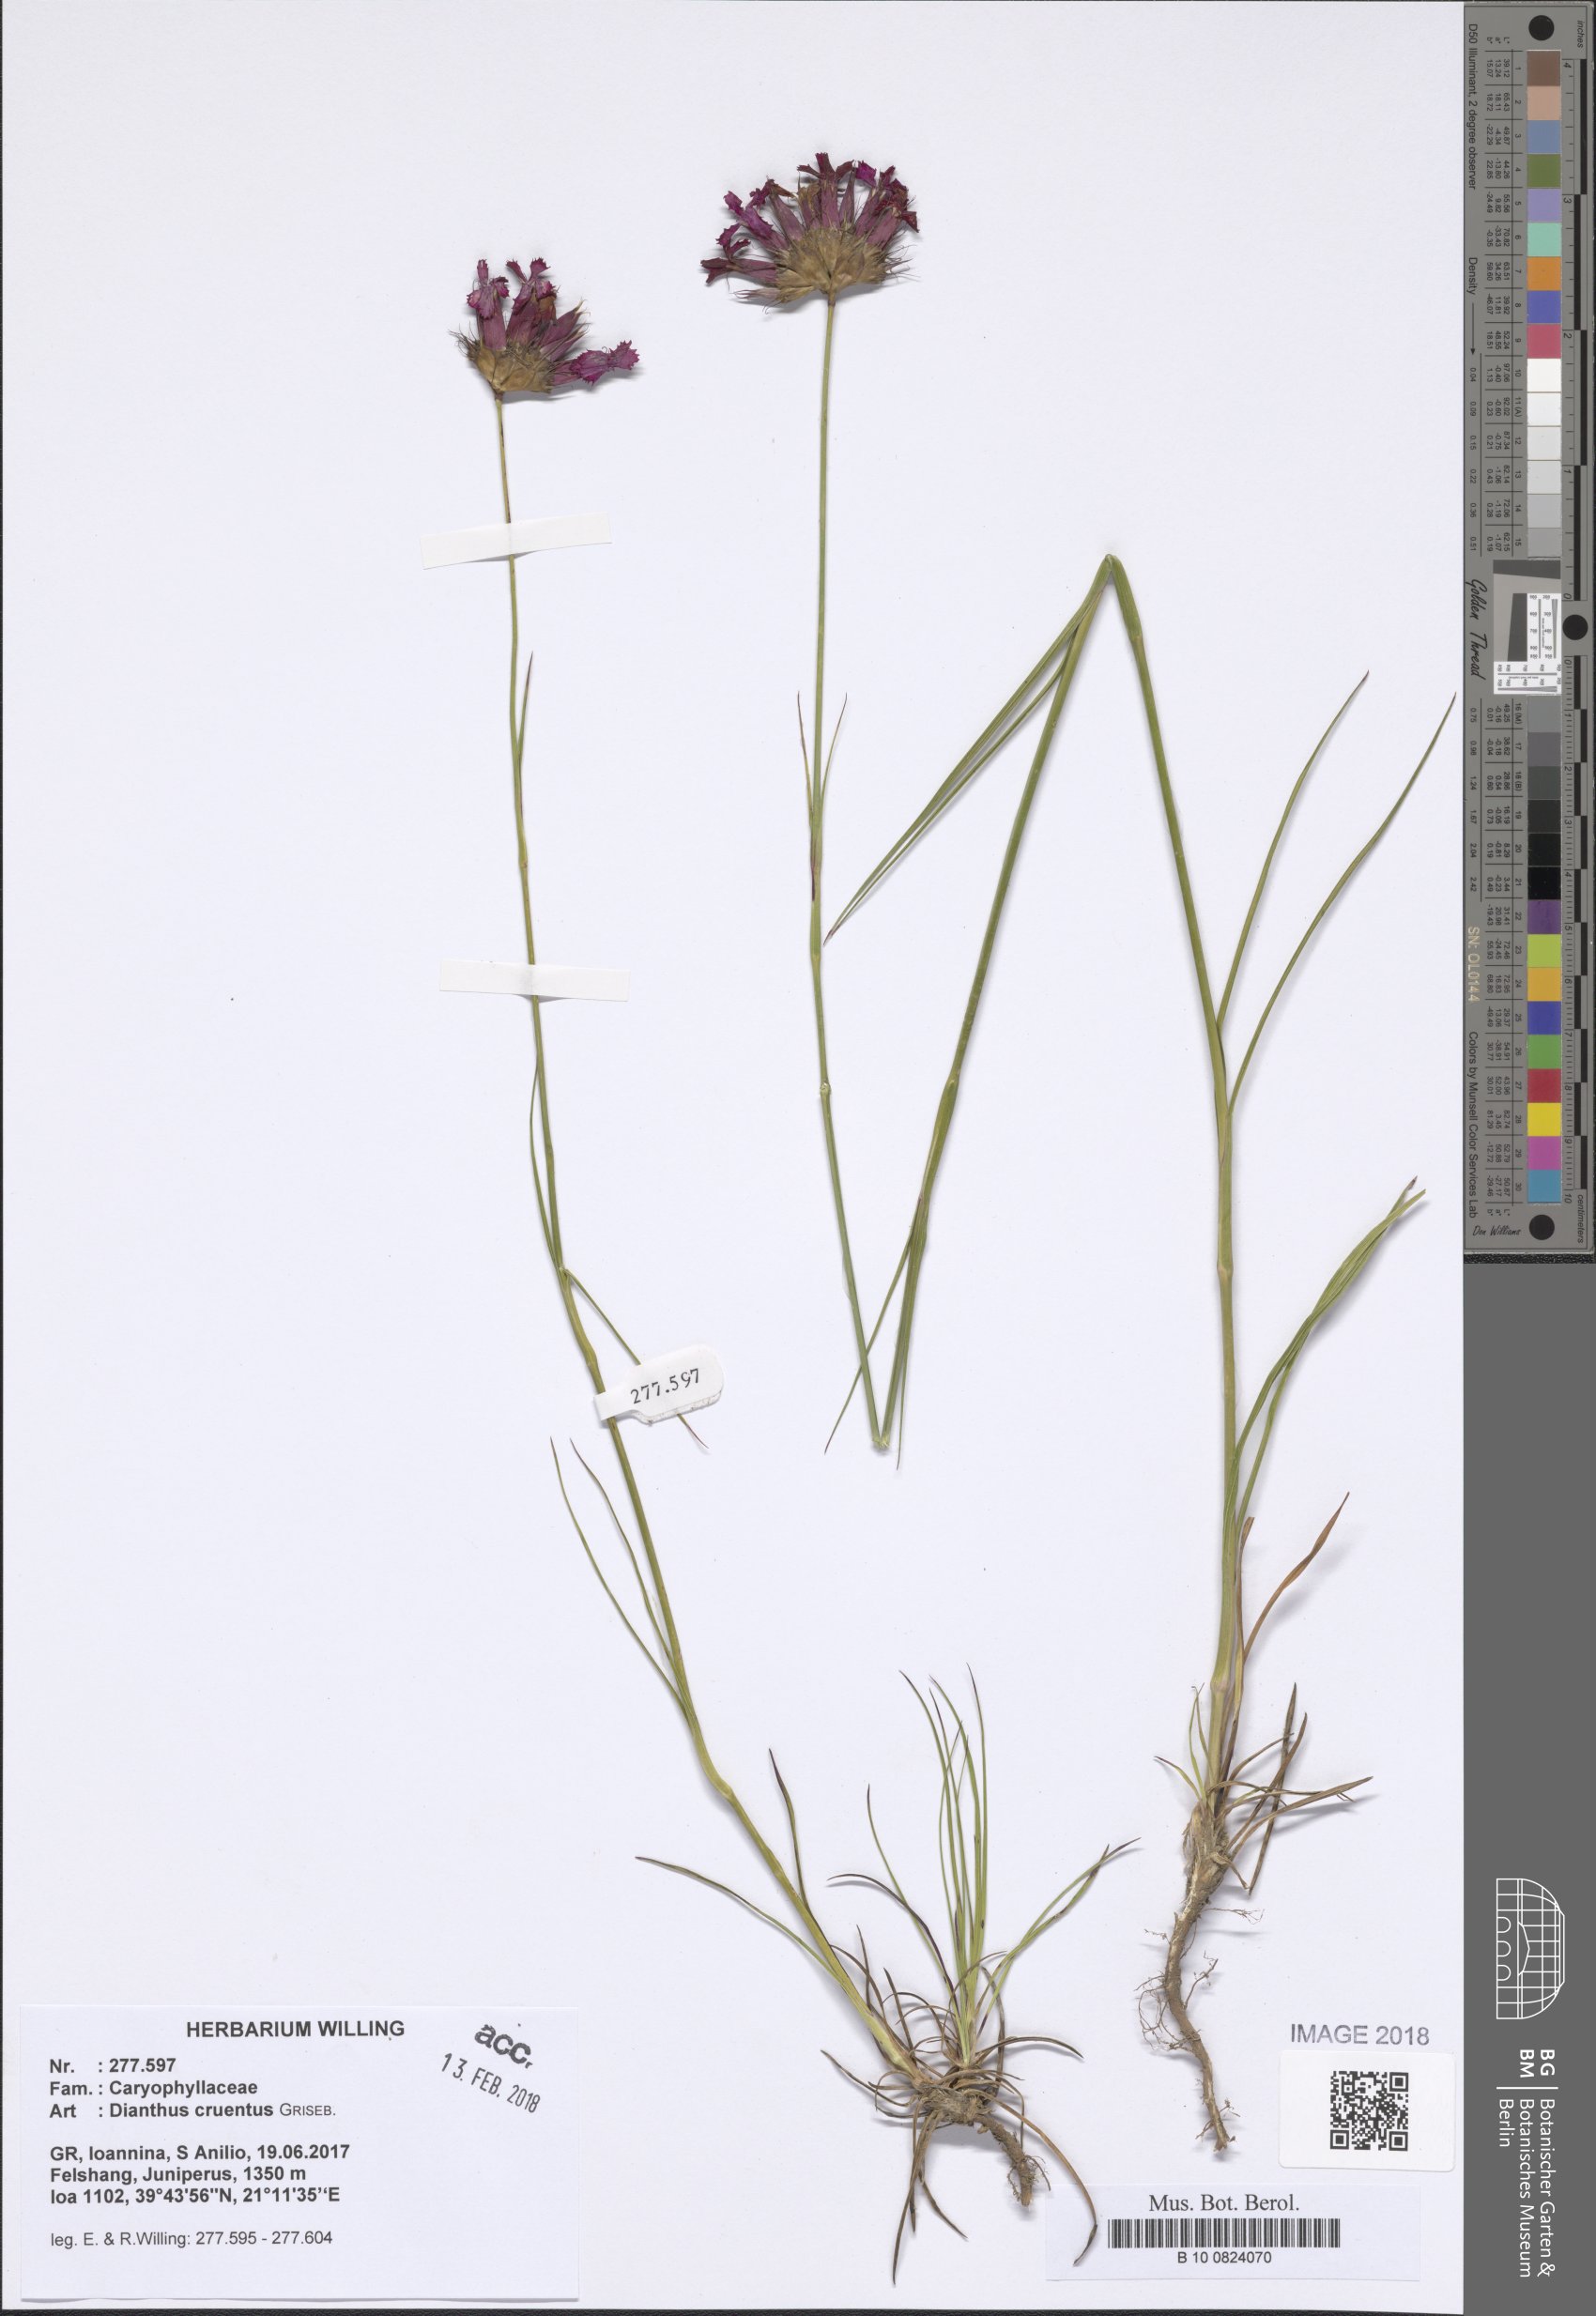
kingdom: Plantae
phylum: Tracheophyta
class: Magnoliopsida
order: Caryophyllales
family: Caryophyllaceae
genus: Dianthus
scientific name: Dianthus cruentus
